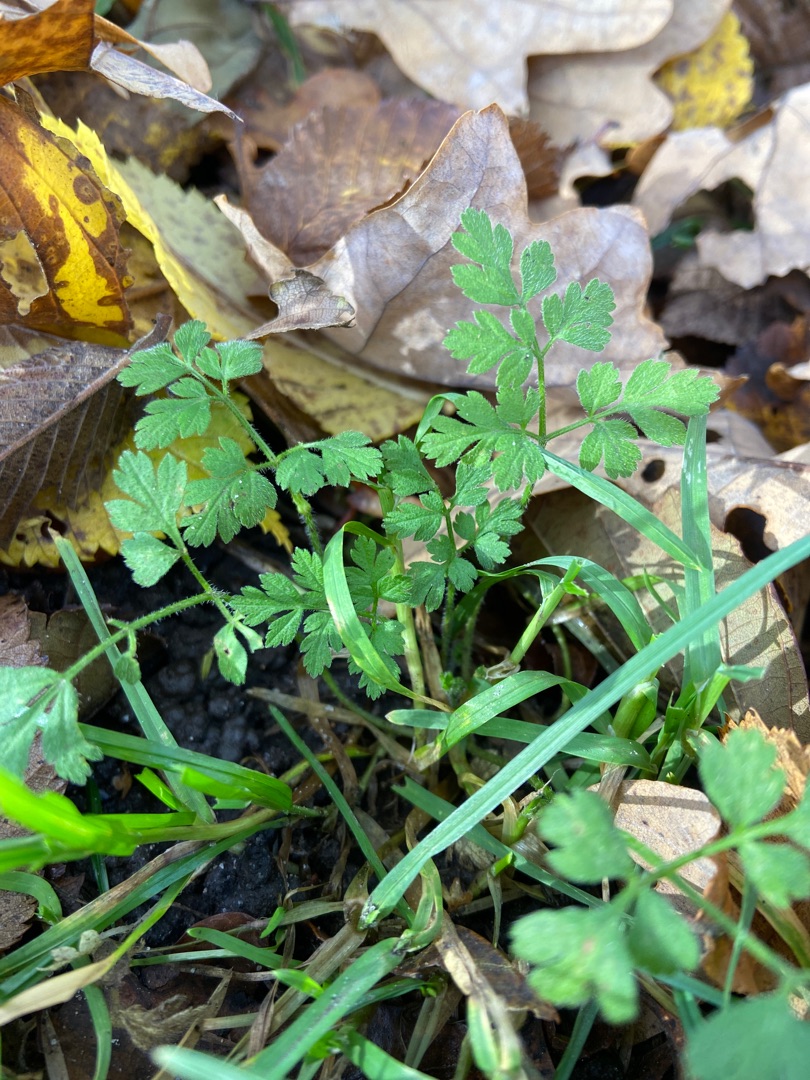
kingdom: Plantae
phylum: Tracheophyta
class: Magnoliopsida
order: Apiales
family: Apiaceae
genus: Chaerophyllum
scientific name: Chaerophyllum temulum
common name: Almindelig hulsvøb
